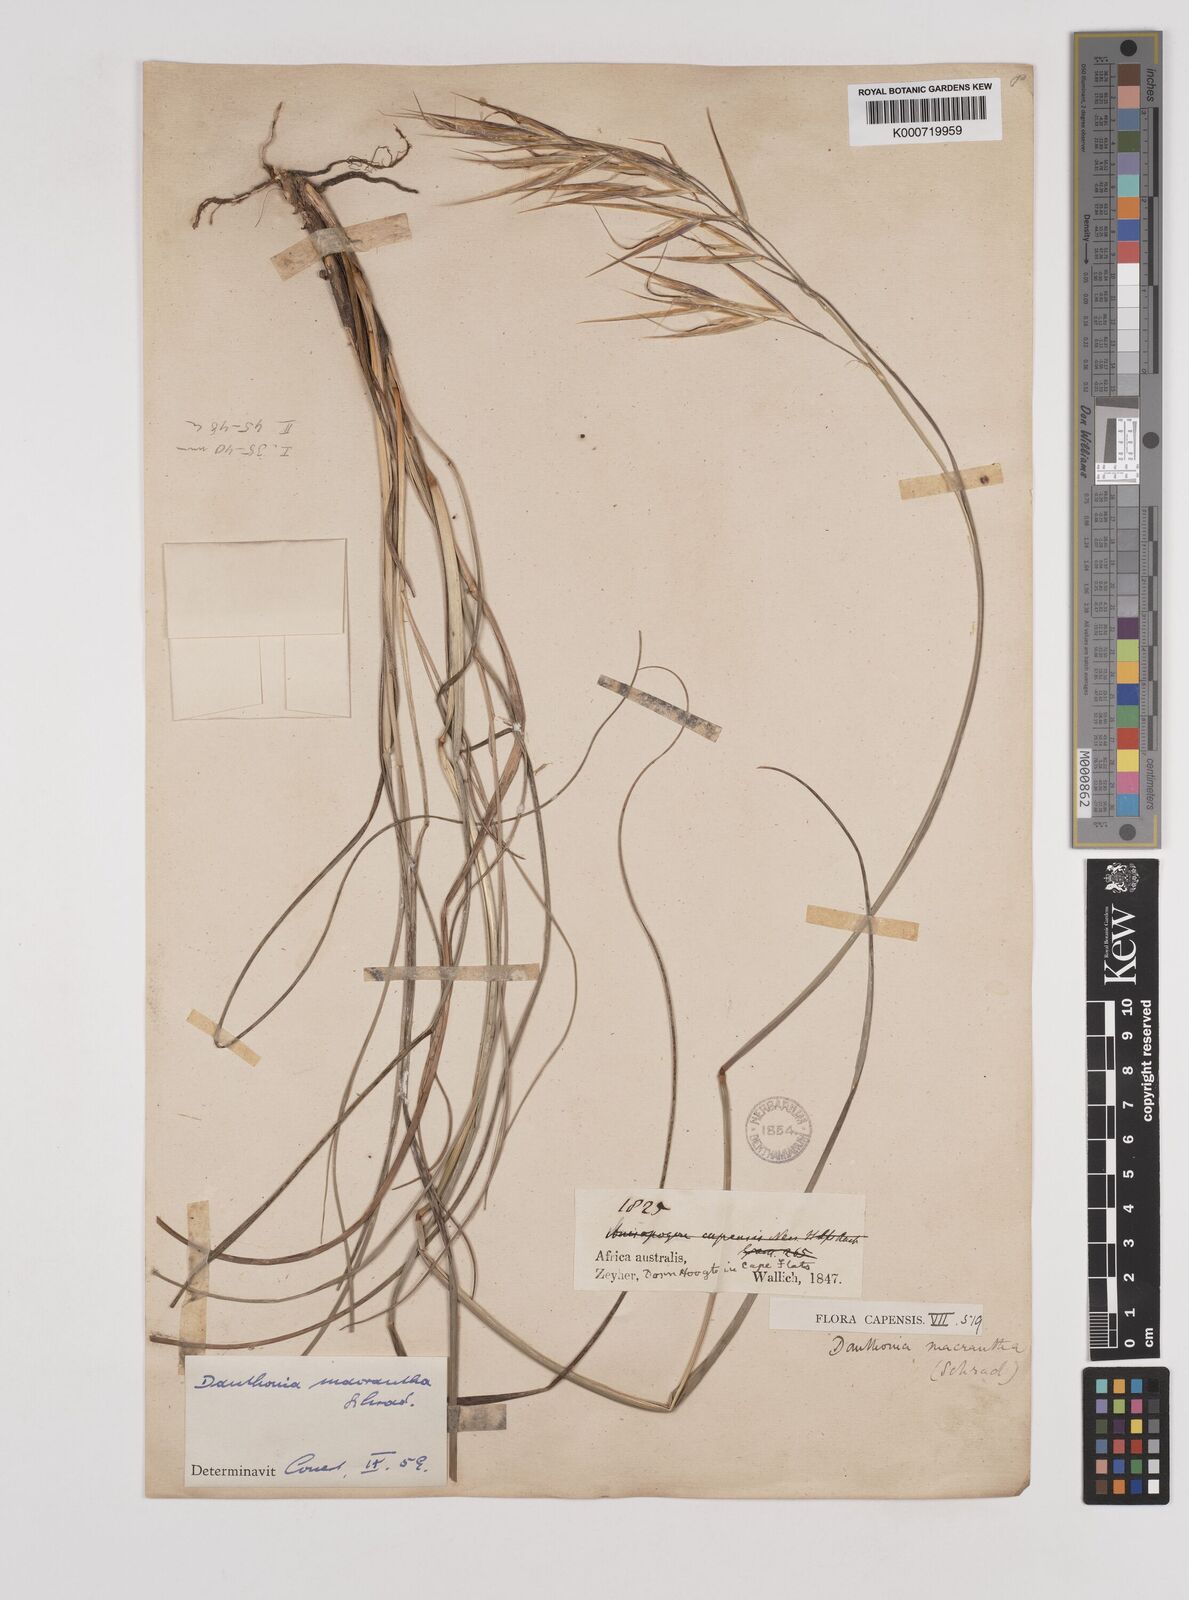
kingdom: Plantae
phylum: Tracheophyta
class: Liliopsida
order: Poales
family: Poaceae
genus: Pseudopentameris
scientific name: Pseudopentameris macrantha
